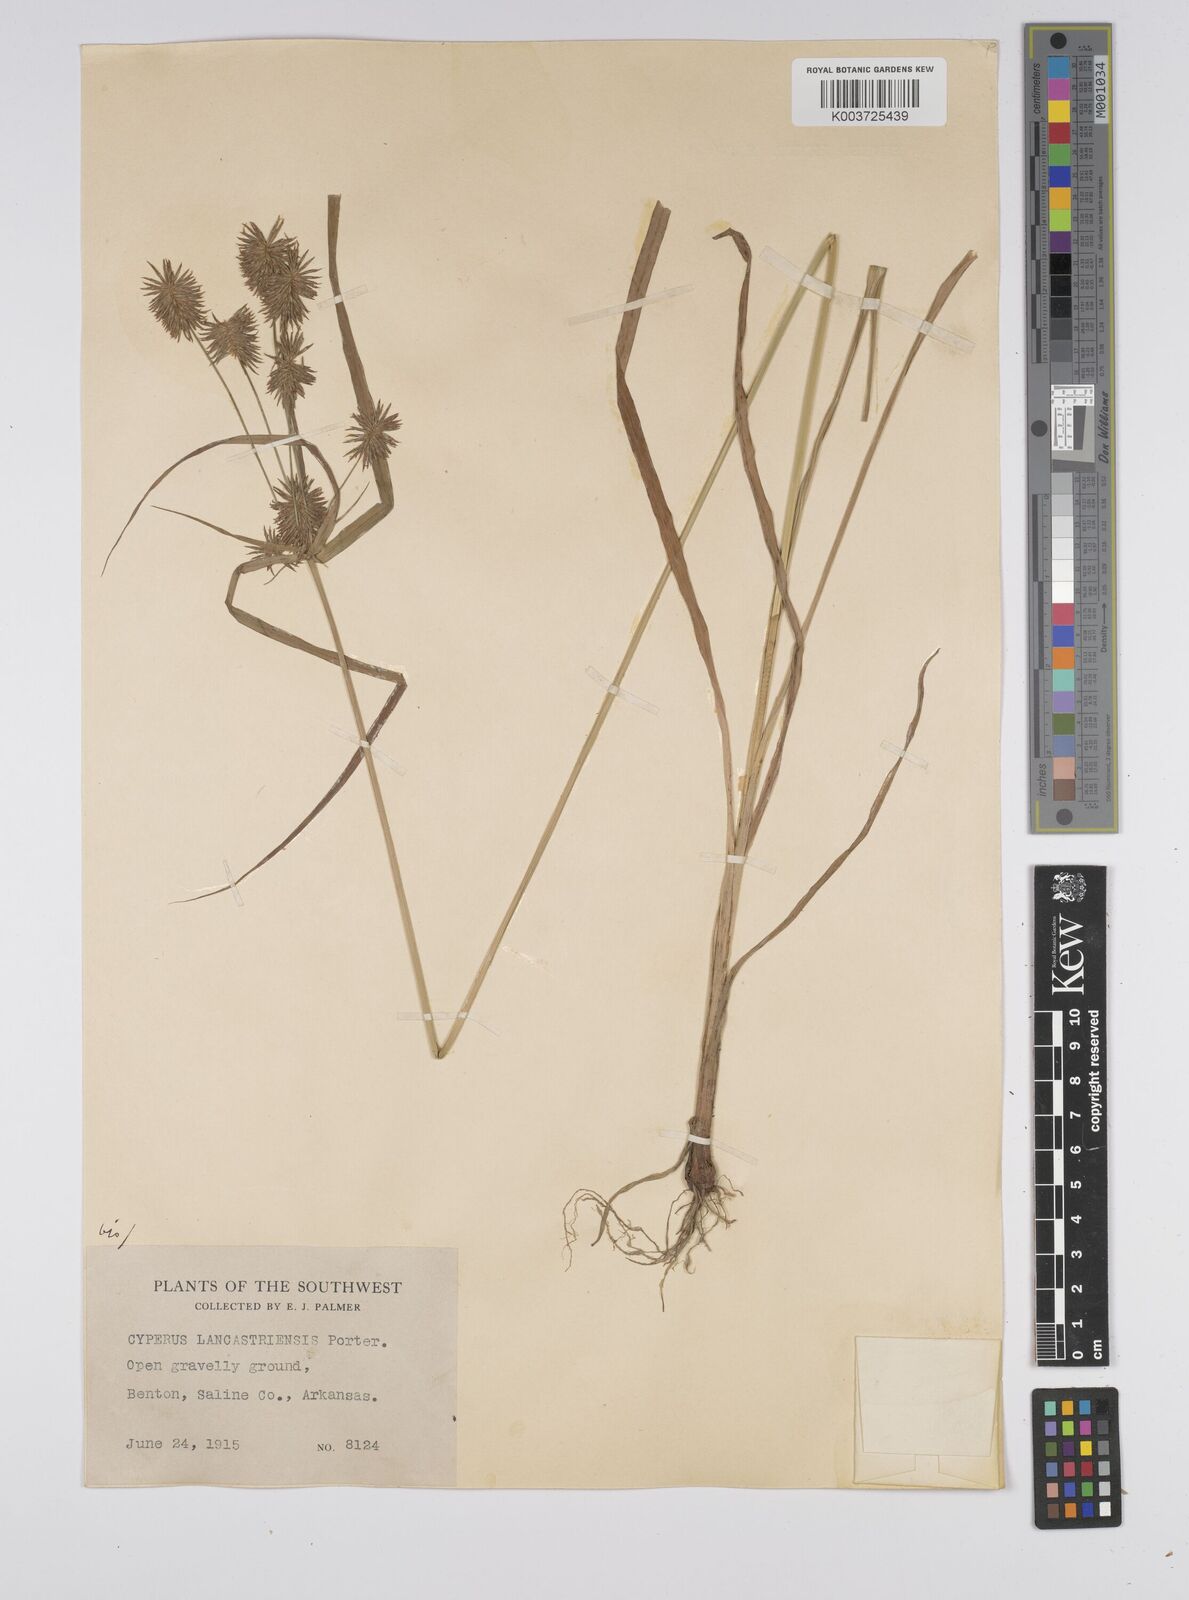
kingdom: Plantae
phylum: Tracheophyta
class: Liliopsida
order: Poales
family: Cyperaceae
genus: Cyperus
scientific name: Cyperus lancastriensis
